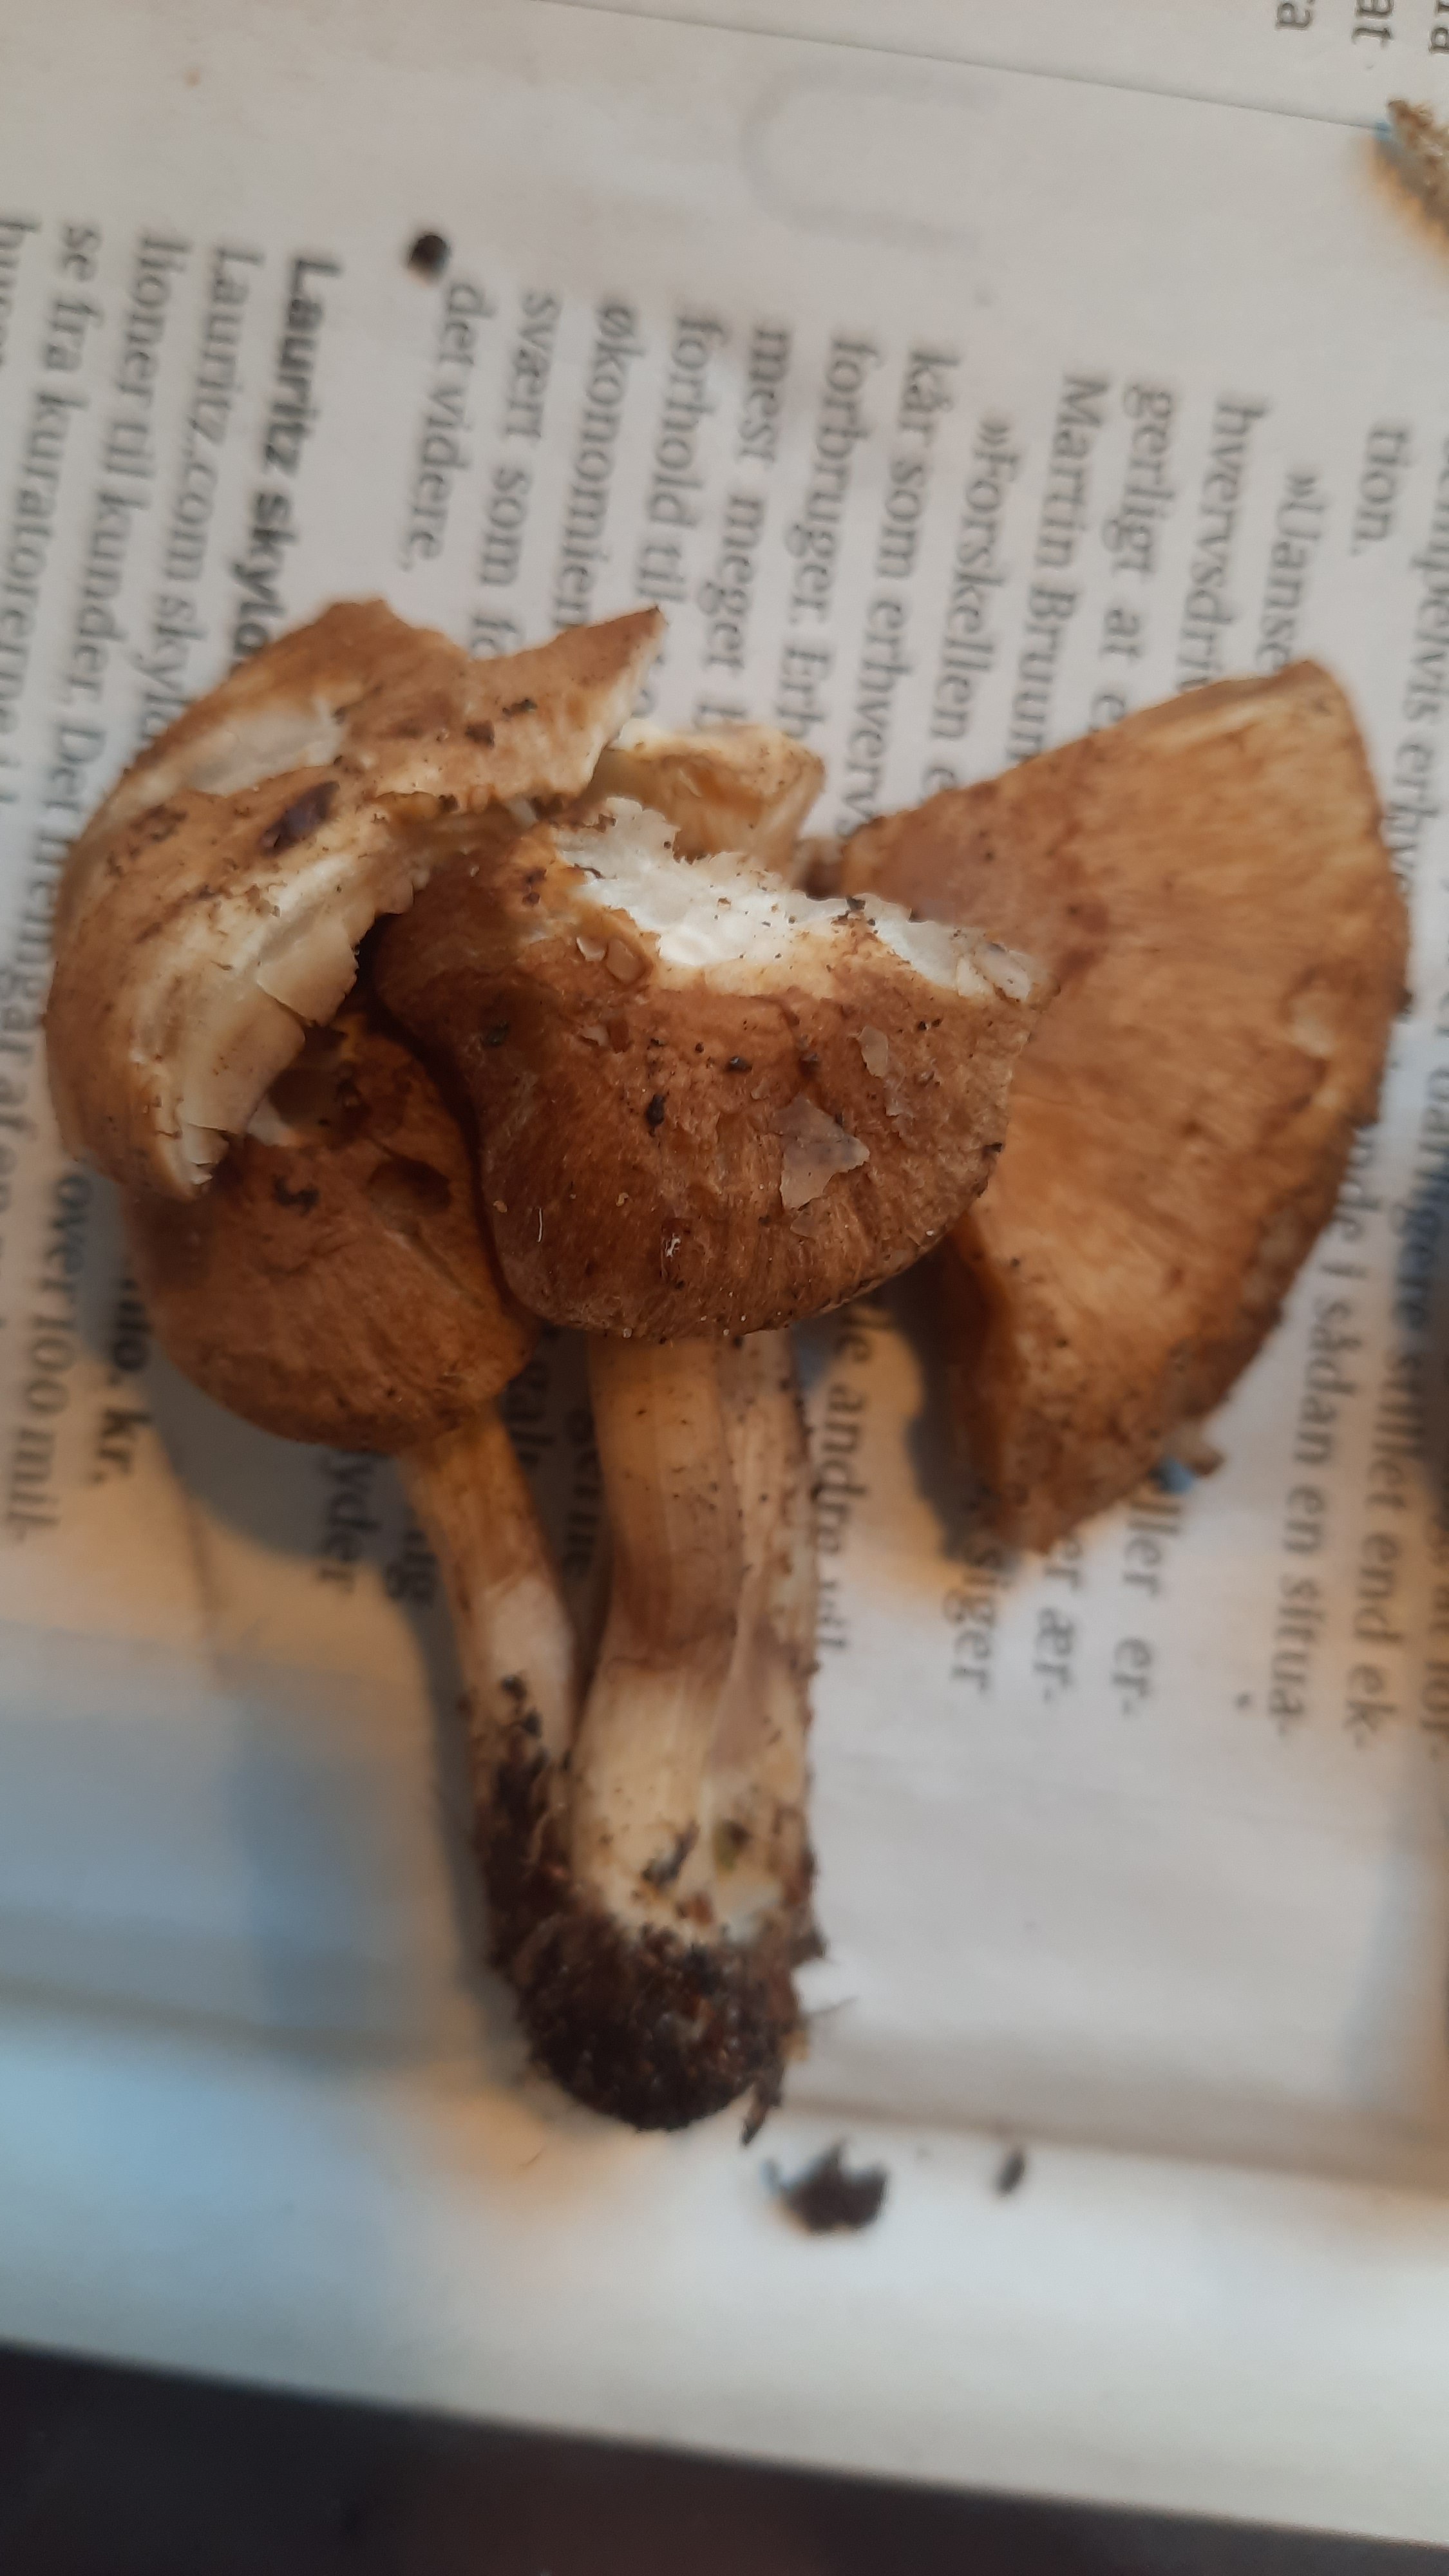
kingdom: Fungi
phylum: Basidiomycota
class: Agaricomycetes
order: Agaricales
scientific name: Agaricales
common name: champignonordenen
